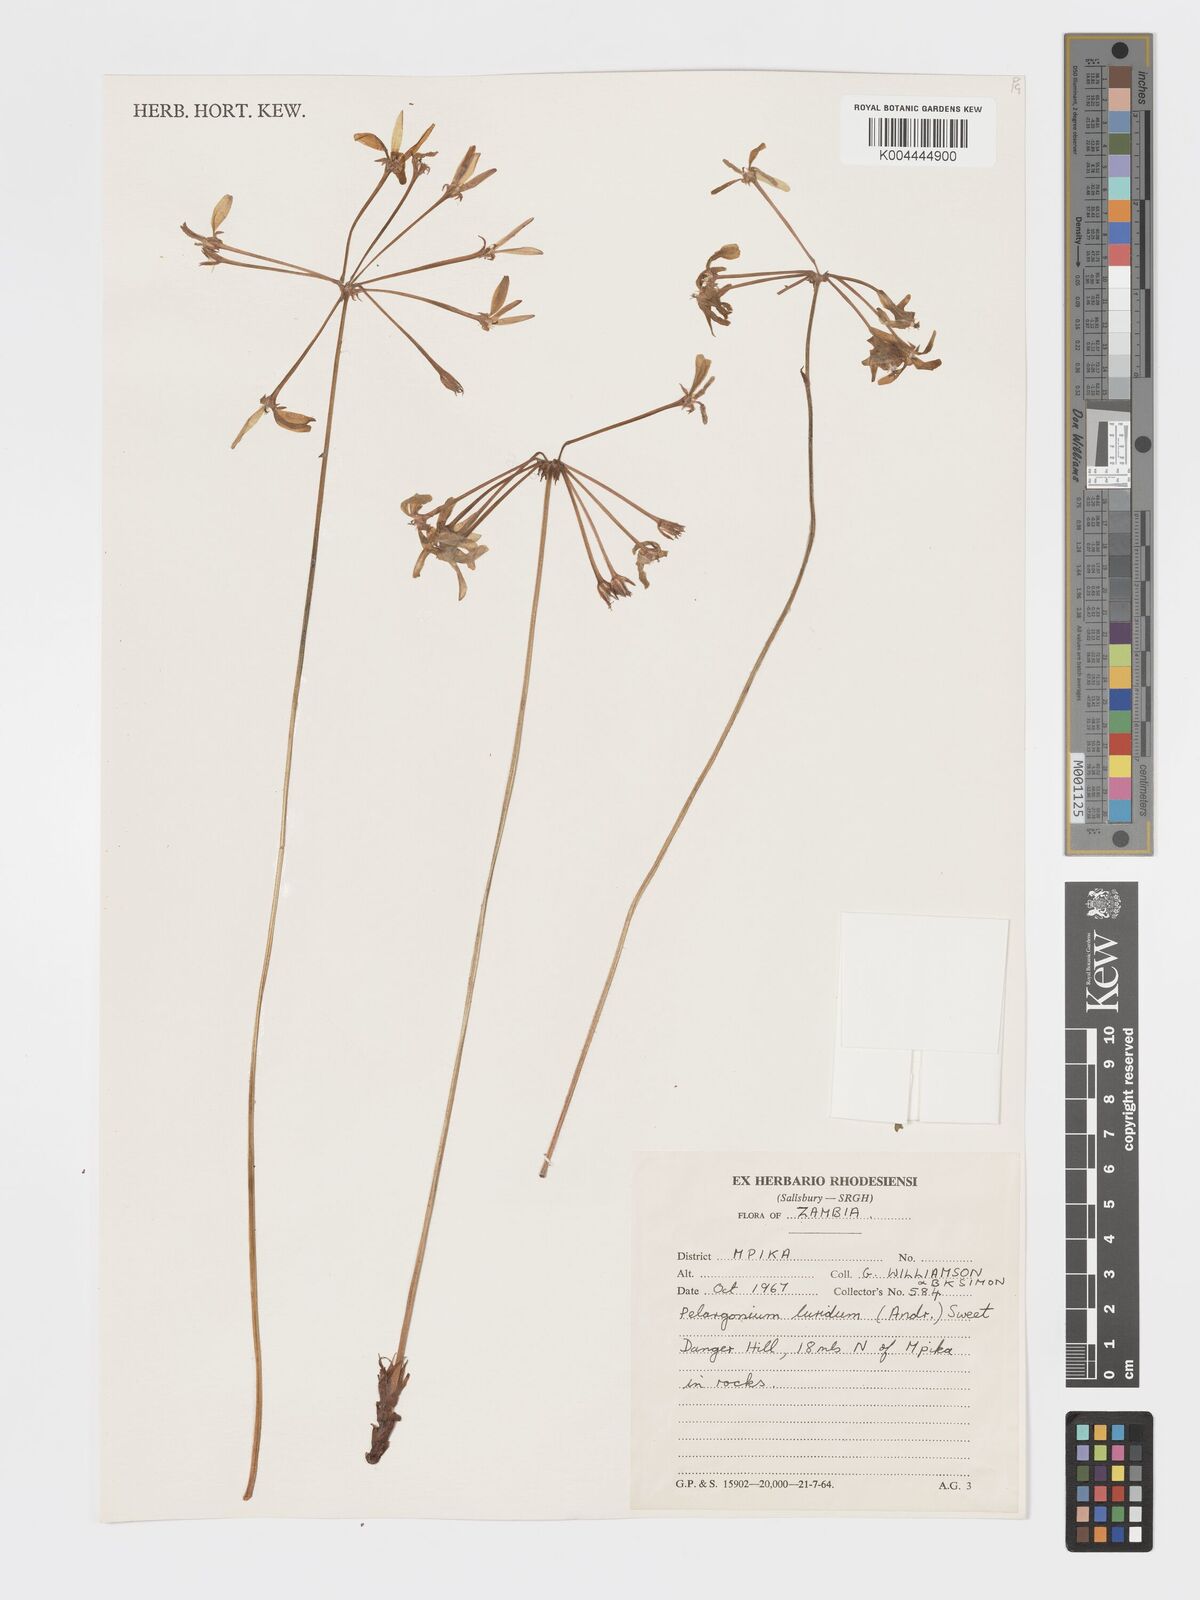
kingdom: Plantae
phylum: Tracheophyta
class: Magnoliopsida
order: Geraniales
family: Geraniaceae
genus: Pelargonium
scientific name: Pelargonium luridum
